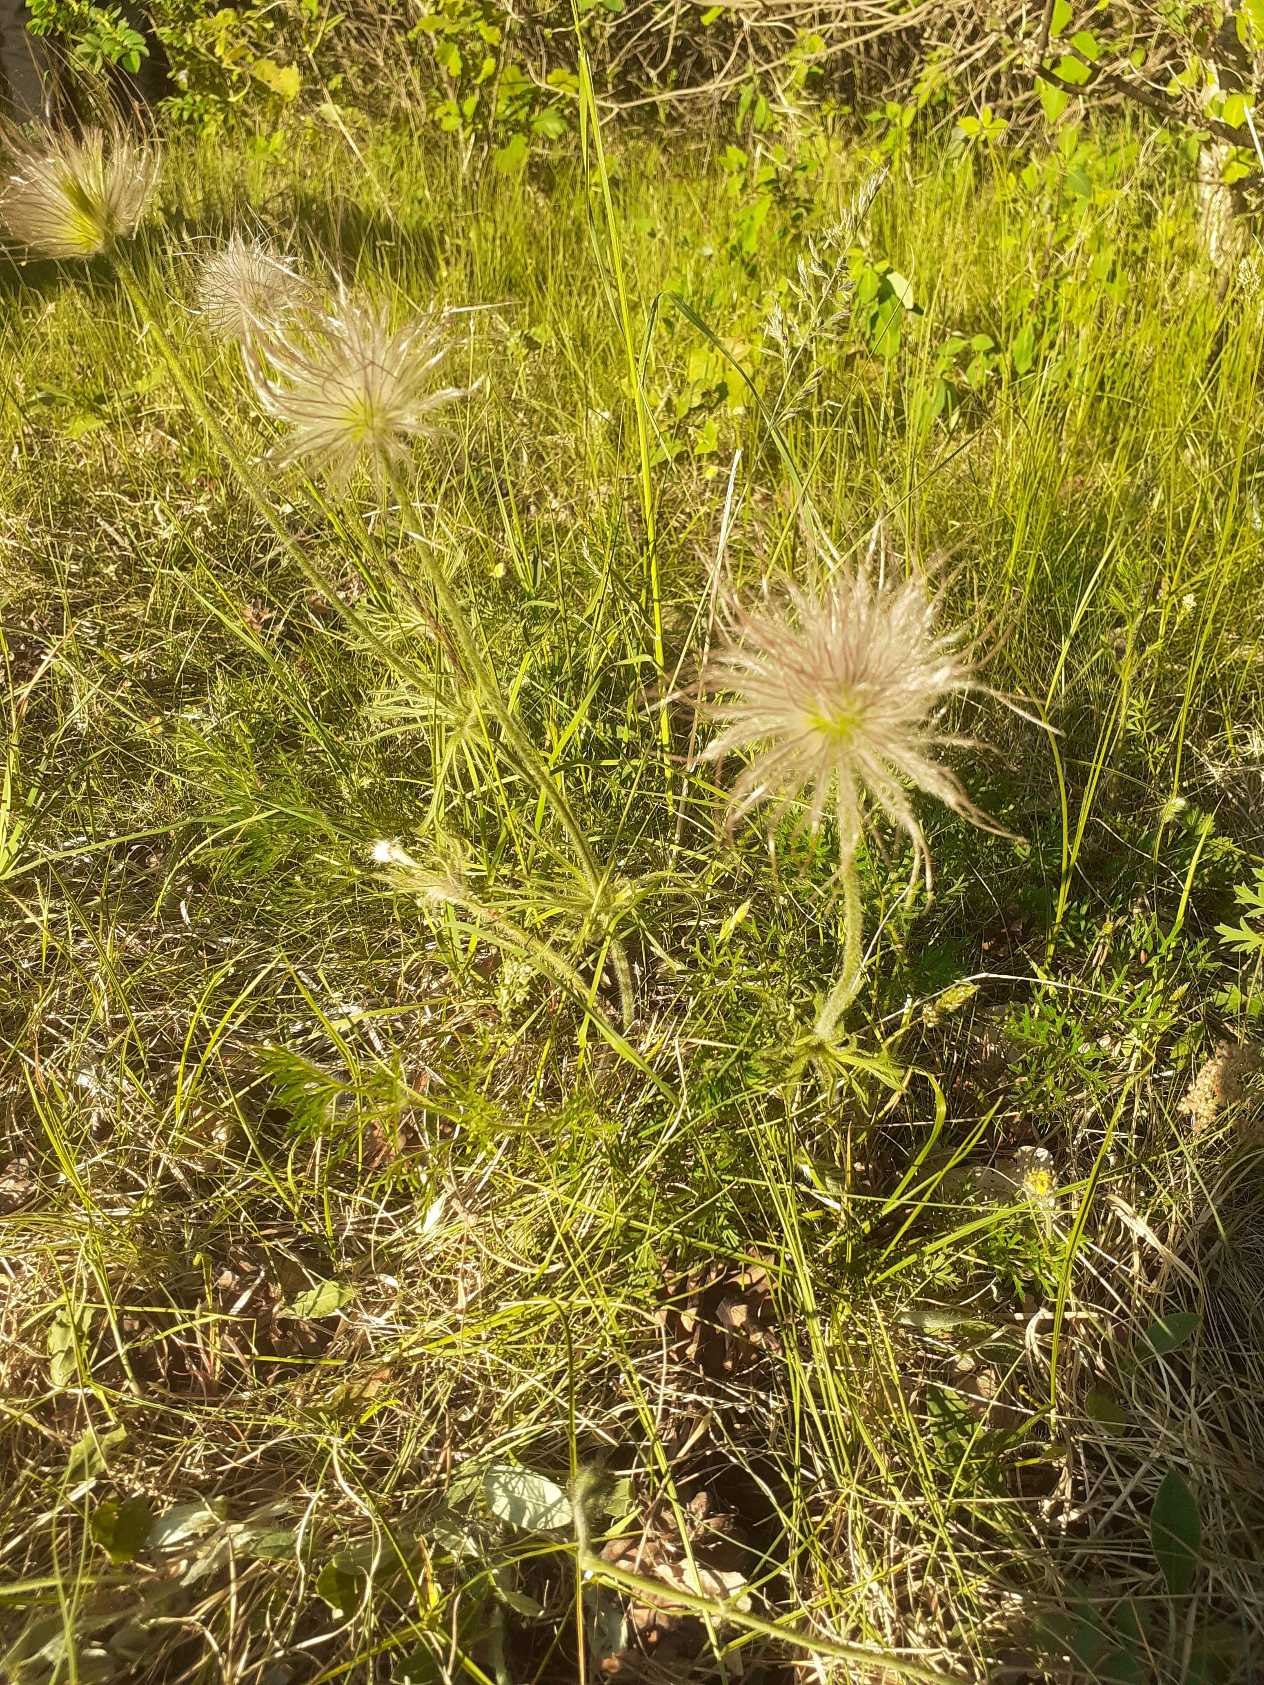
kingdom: Plantae
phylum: Tracheophyta
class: Magnoliopsida
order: Ranunculales
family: Ranunculaceae
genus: Pulsatilla
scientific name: Pulsatilla pratensis
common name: Nikkende kobjælde
